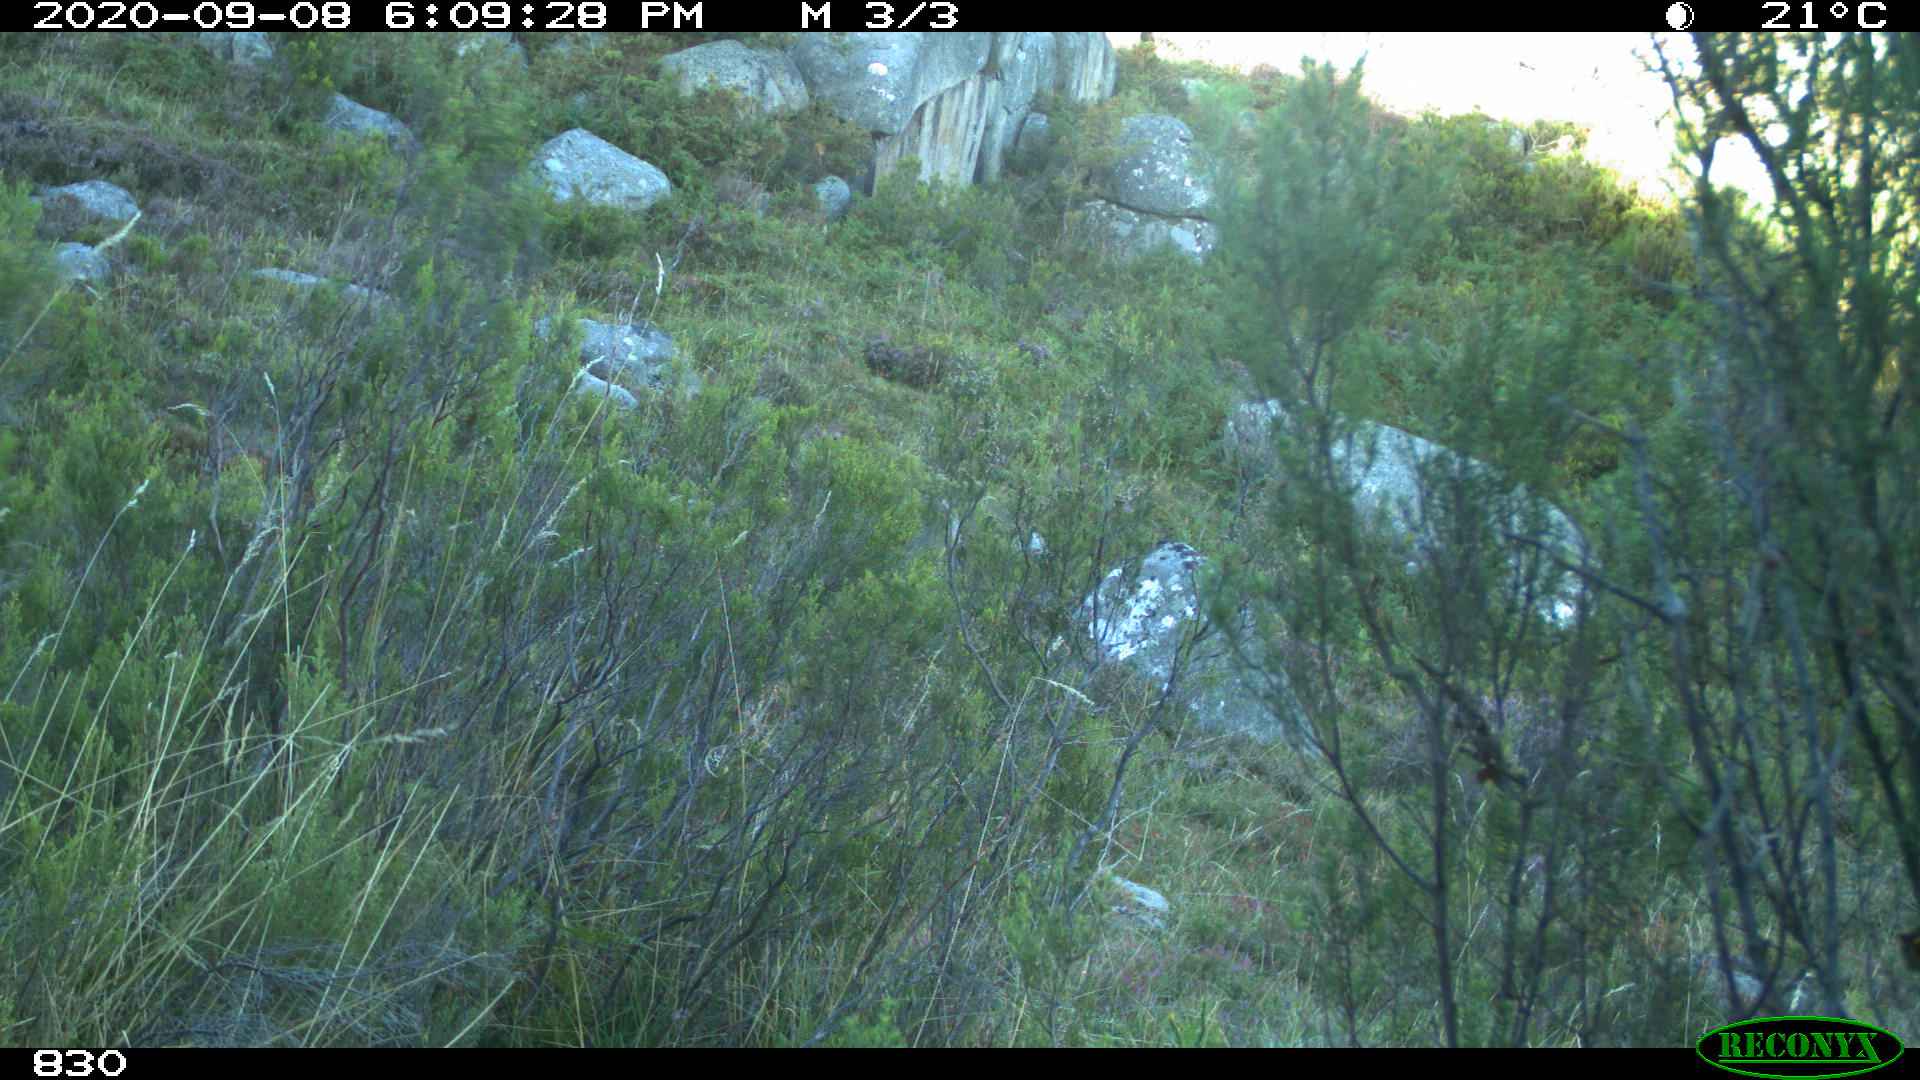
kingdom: Animalia
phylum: Chordata
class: Mammalia
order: Perissodactyla
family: Equidae
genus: Equus
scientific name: Equus caballus
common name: Horse
